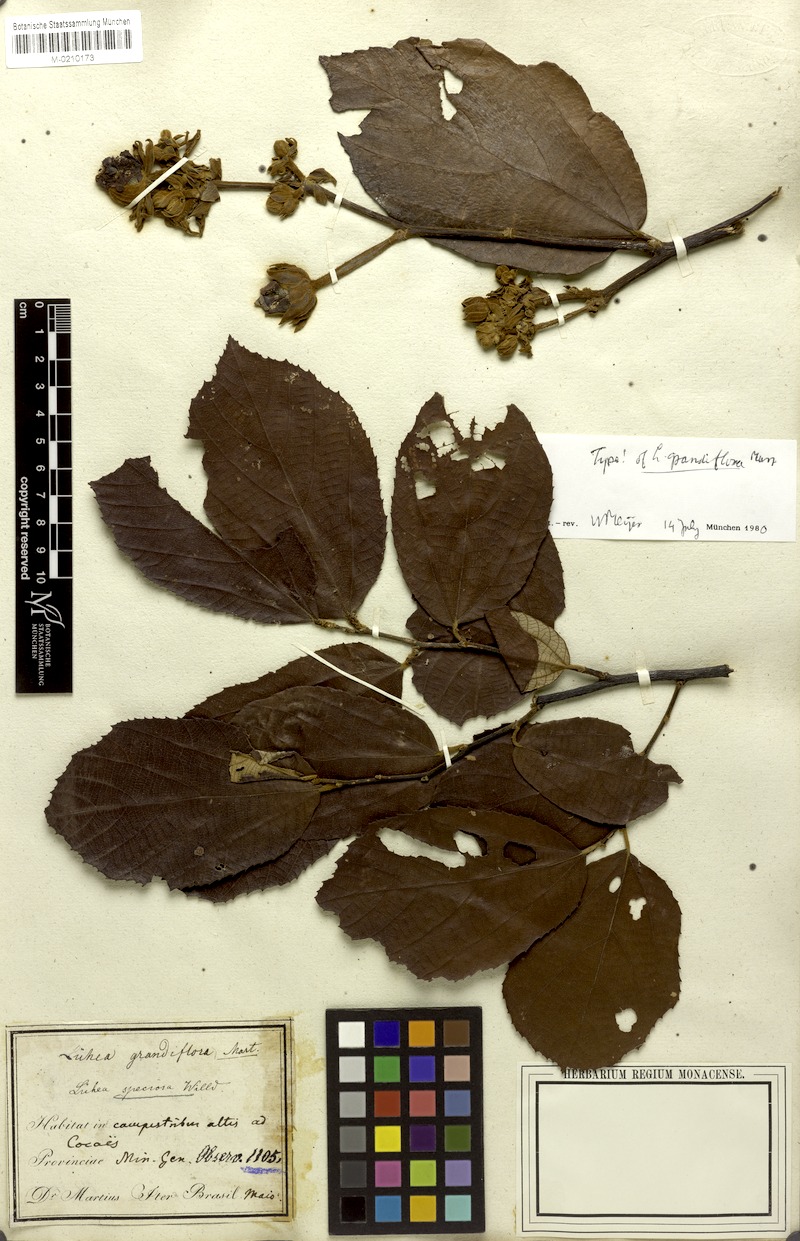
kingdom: Plantae
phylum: Tracheophyta
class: Magnoliopsida
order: Malvales
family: Malvaceae
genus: Luehea
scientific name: Luehea grandiflora
